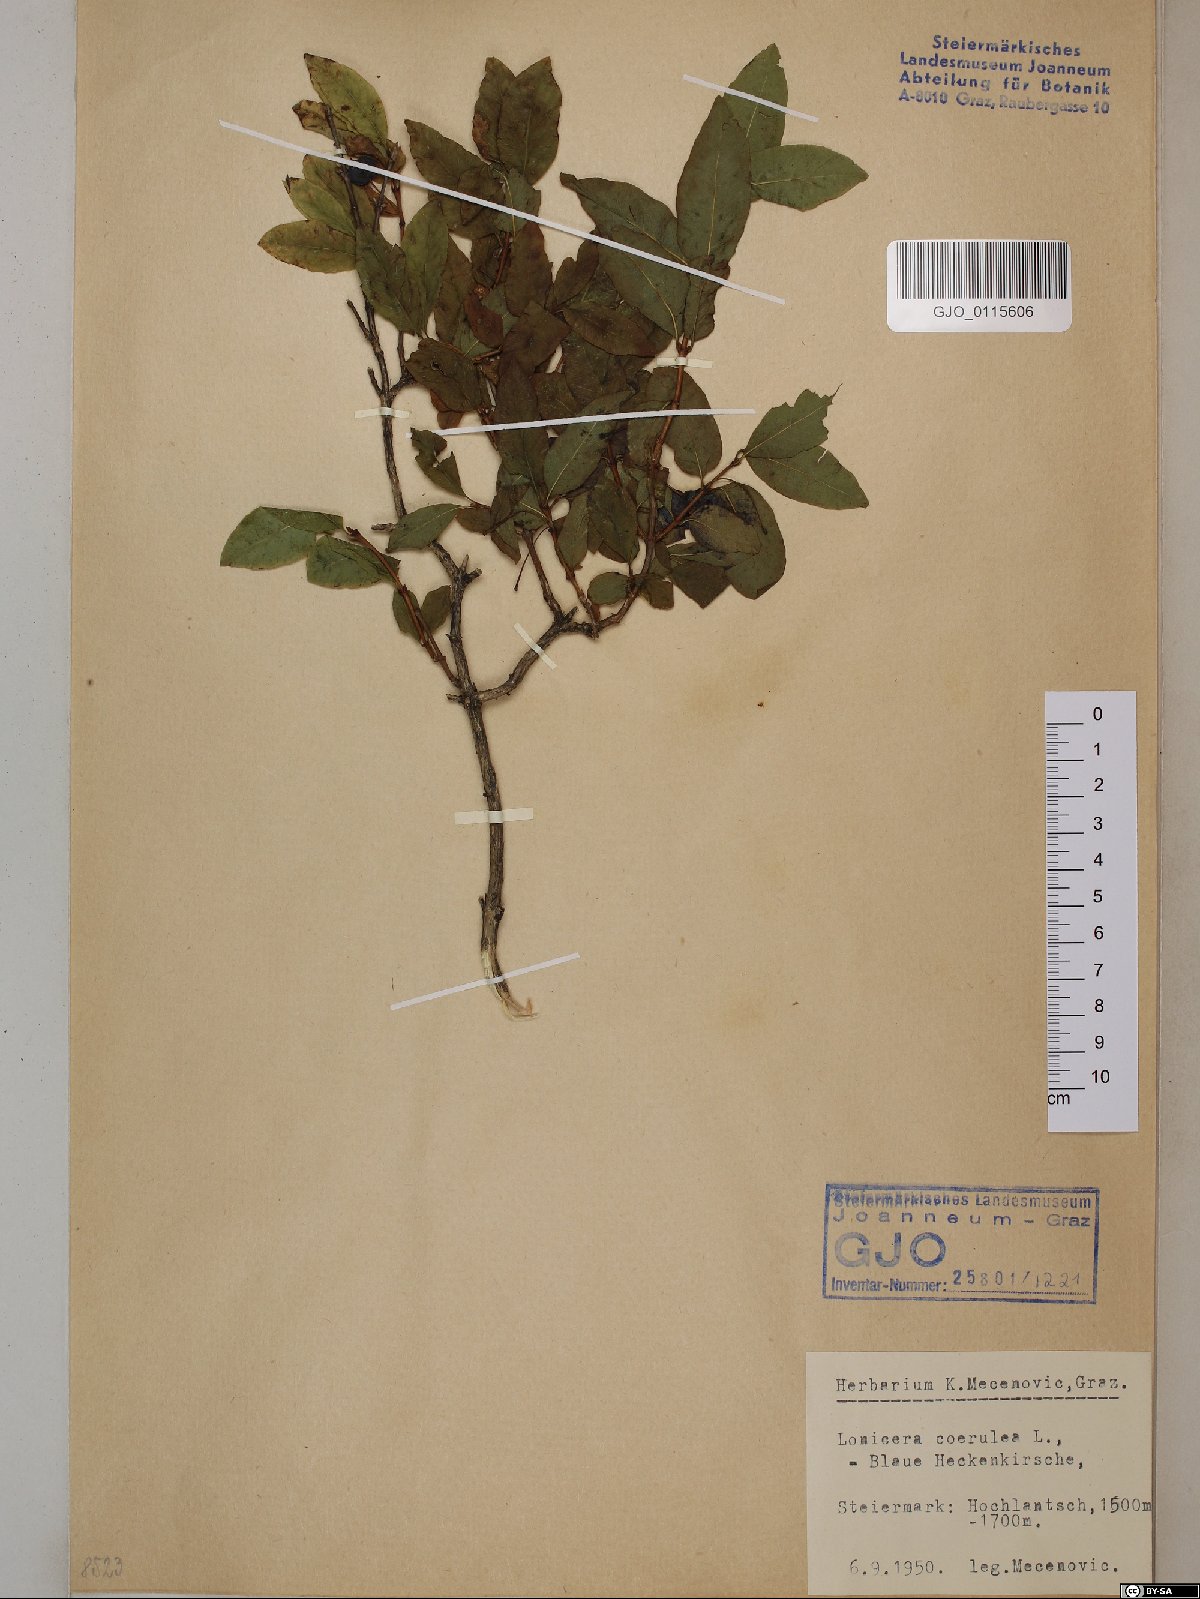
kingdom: Plantae
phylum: Tracheophyta
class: Magnoliopsida
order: Dipsacales
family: Caprifoliaceae
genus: Lonicera
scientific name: Lonicera caerulea
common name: Blue honeysuckle
